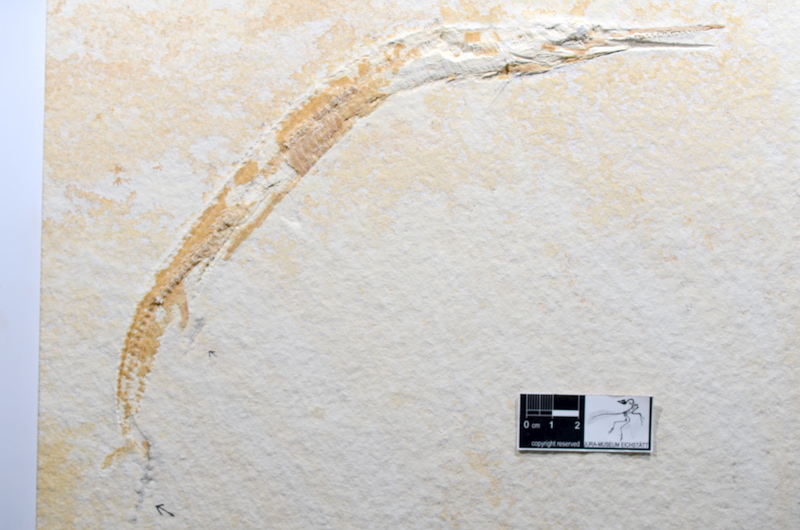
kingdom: Animalia
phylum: Chordata
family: Aspidorhynchidae
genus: Belonostomus
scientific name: Belonostomus sphyraenoides
